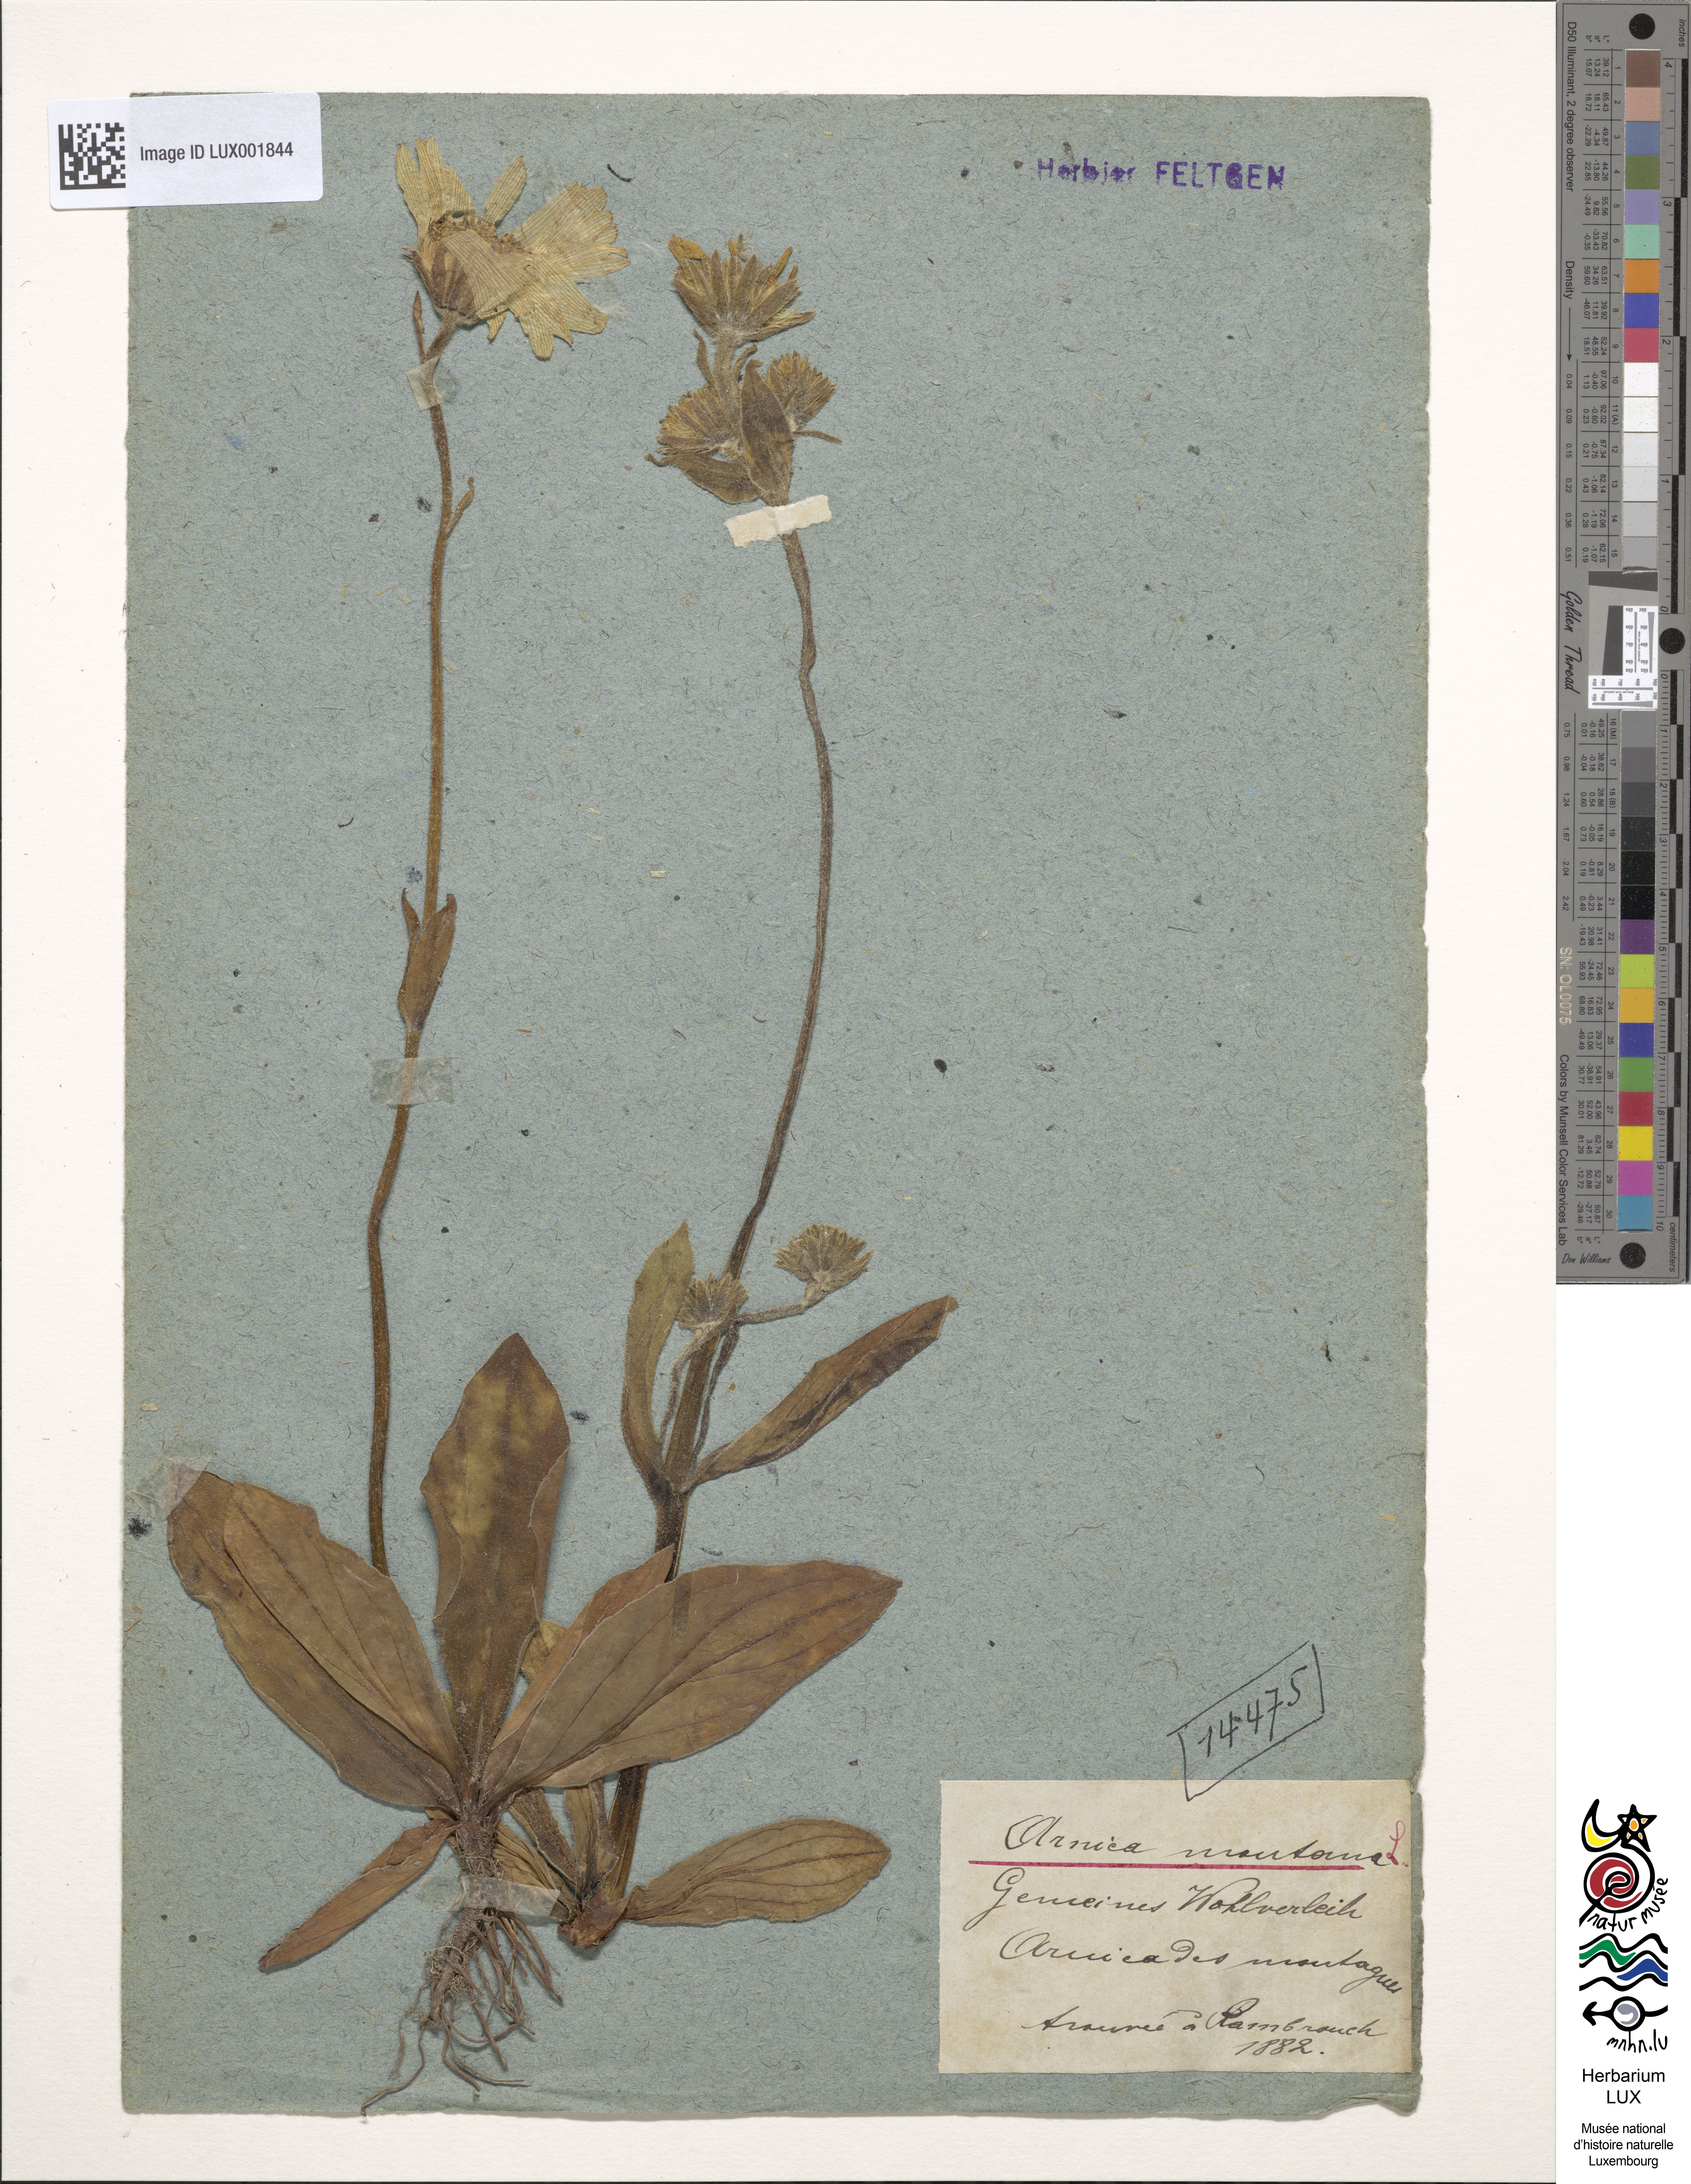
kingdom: Plantae
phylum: Tracheophyta
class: Magnoliopsida
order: Asterales
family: Asteraceae
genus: Arnica
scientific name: Arnica montana
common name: Leopard's bane
